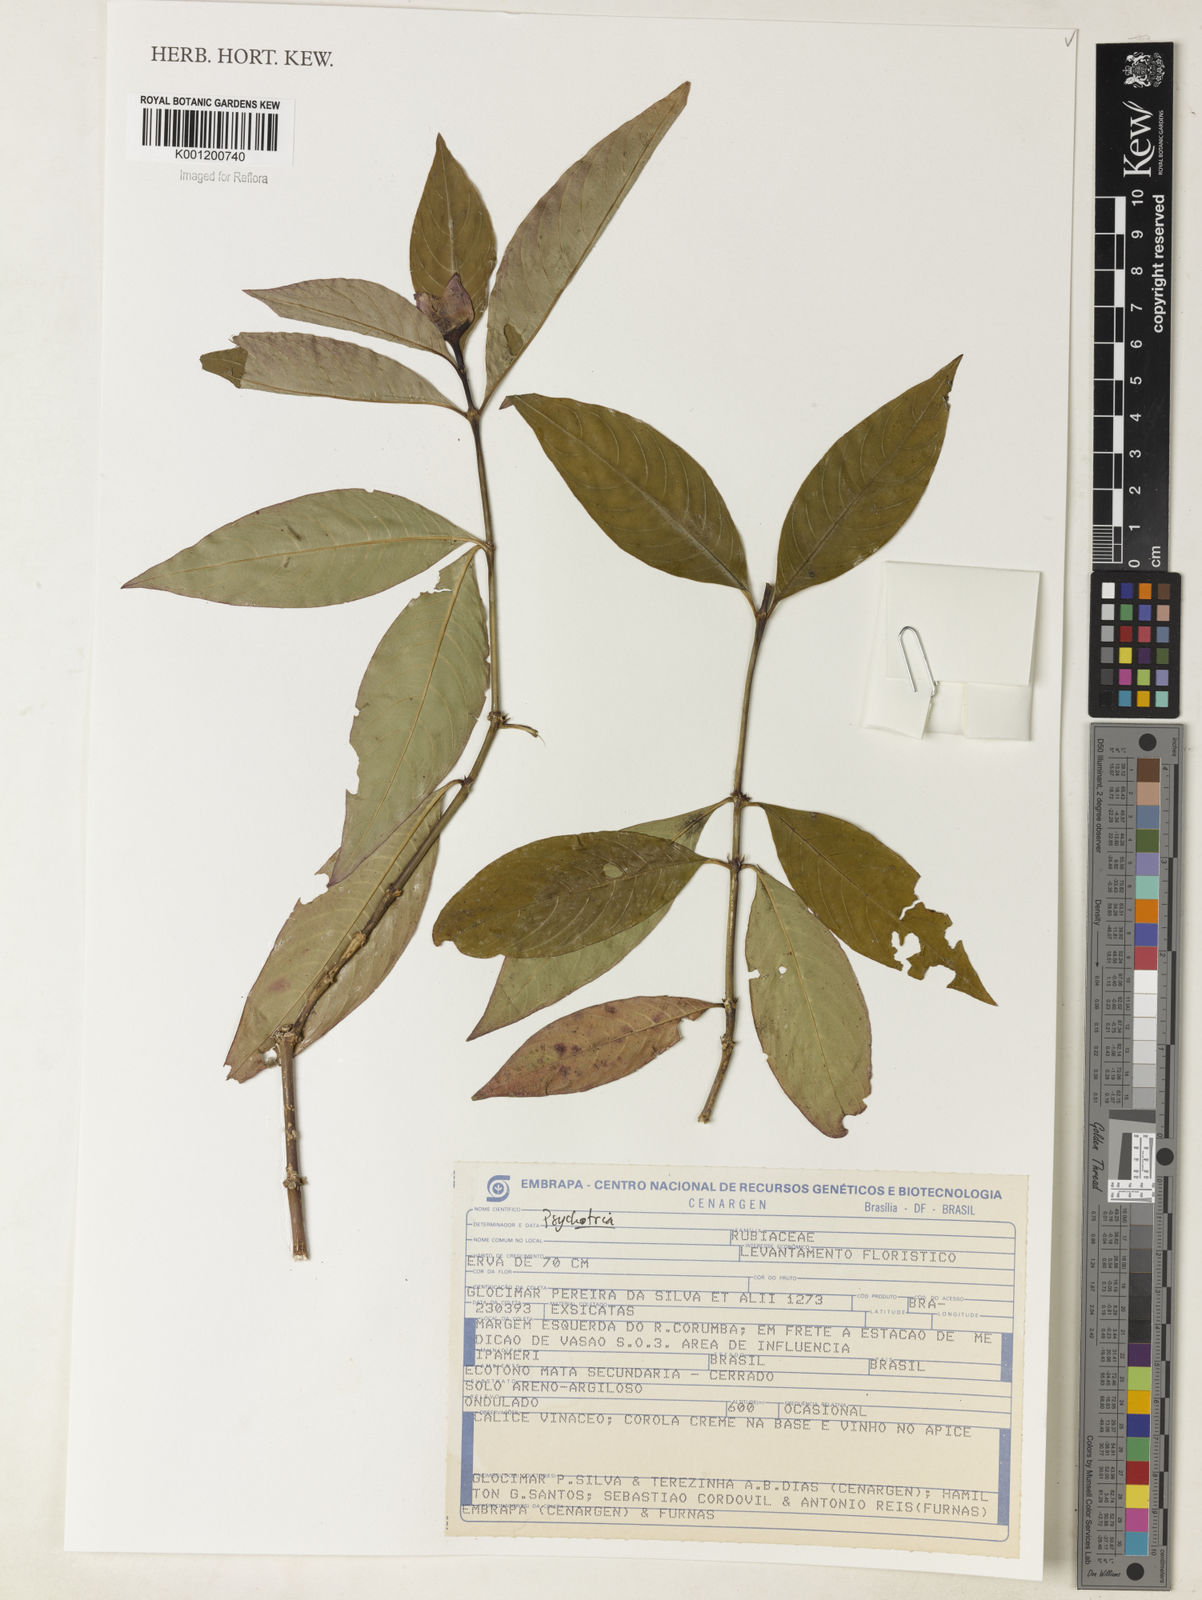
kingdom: Plantae
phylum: Tracheophyta
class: Magnoliopsida
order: Gentianales
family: Rubiaceae
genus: Psychotria
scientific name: Psychotria
